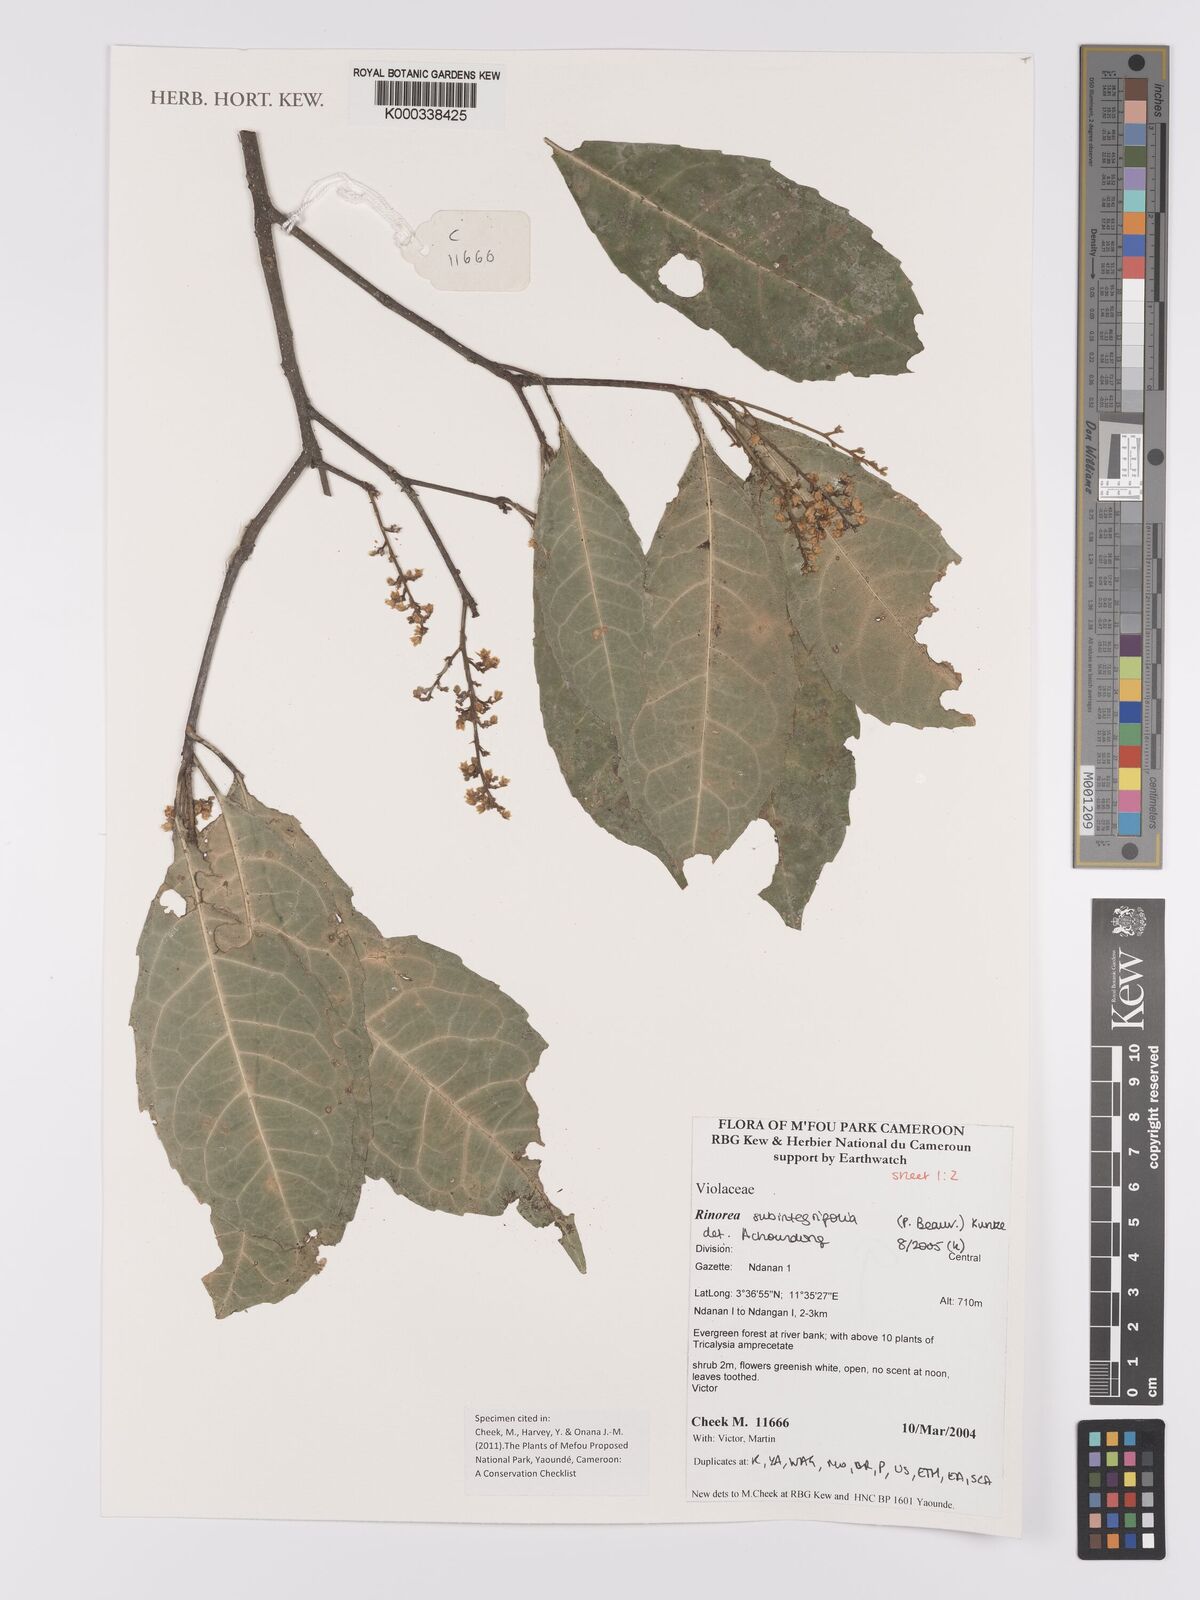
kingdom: Plantae
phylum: Tracheophyta
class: Magnoliopsida
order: Malpighiales
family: Violaceae
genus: Rinorea
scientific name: Rinorea subintegrifolia
